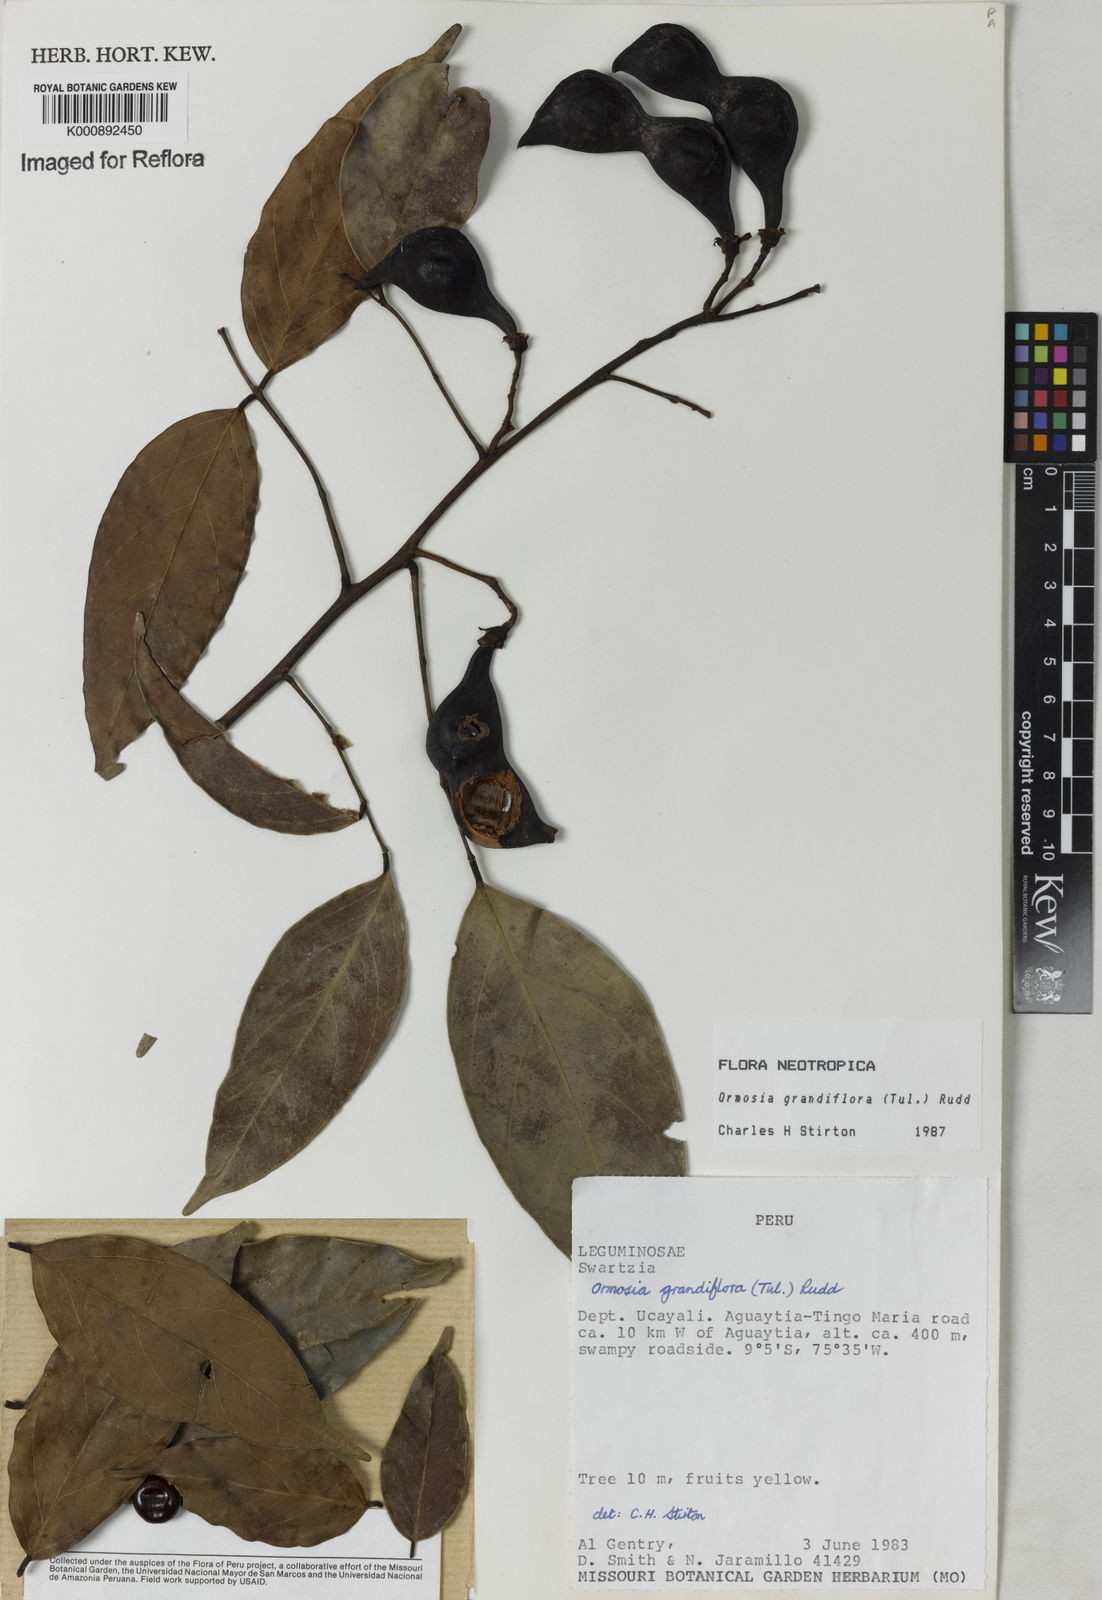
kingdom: Plantae
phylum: Tracheophyta
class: Magnoliopsida
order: Fabales
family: Fabaceae
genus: Ormosia
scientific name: Ormosia grandiflora
